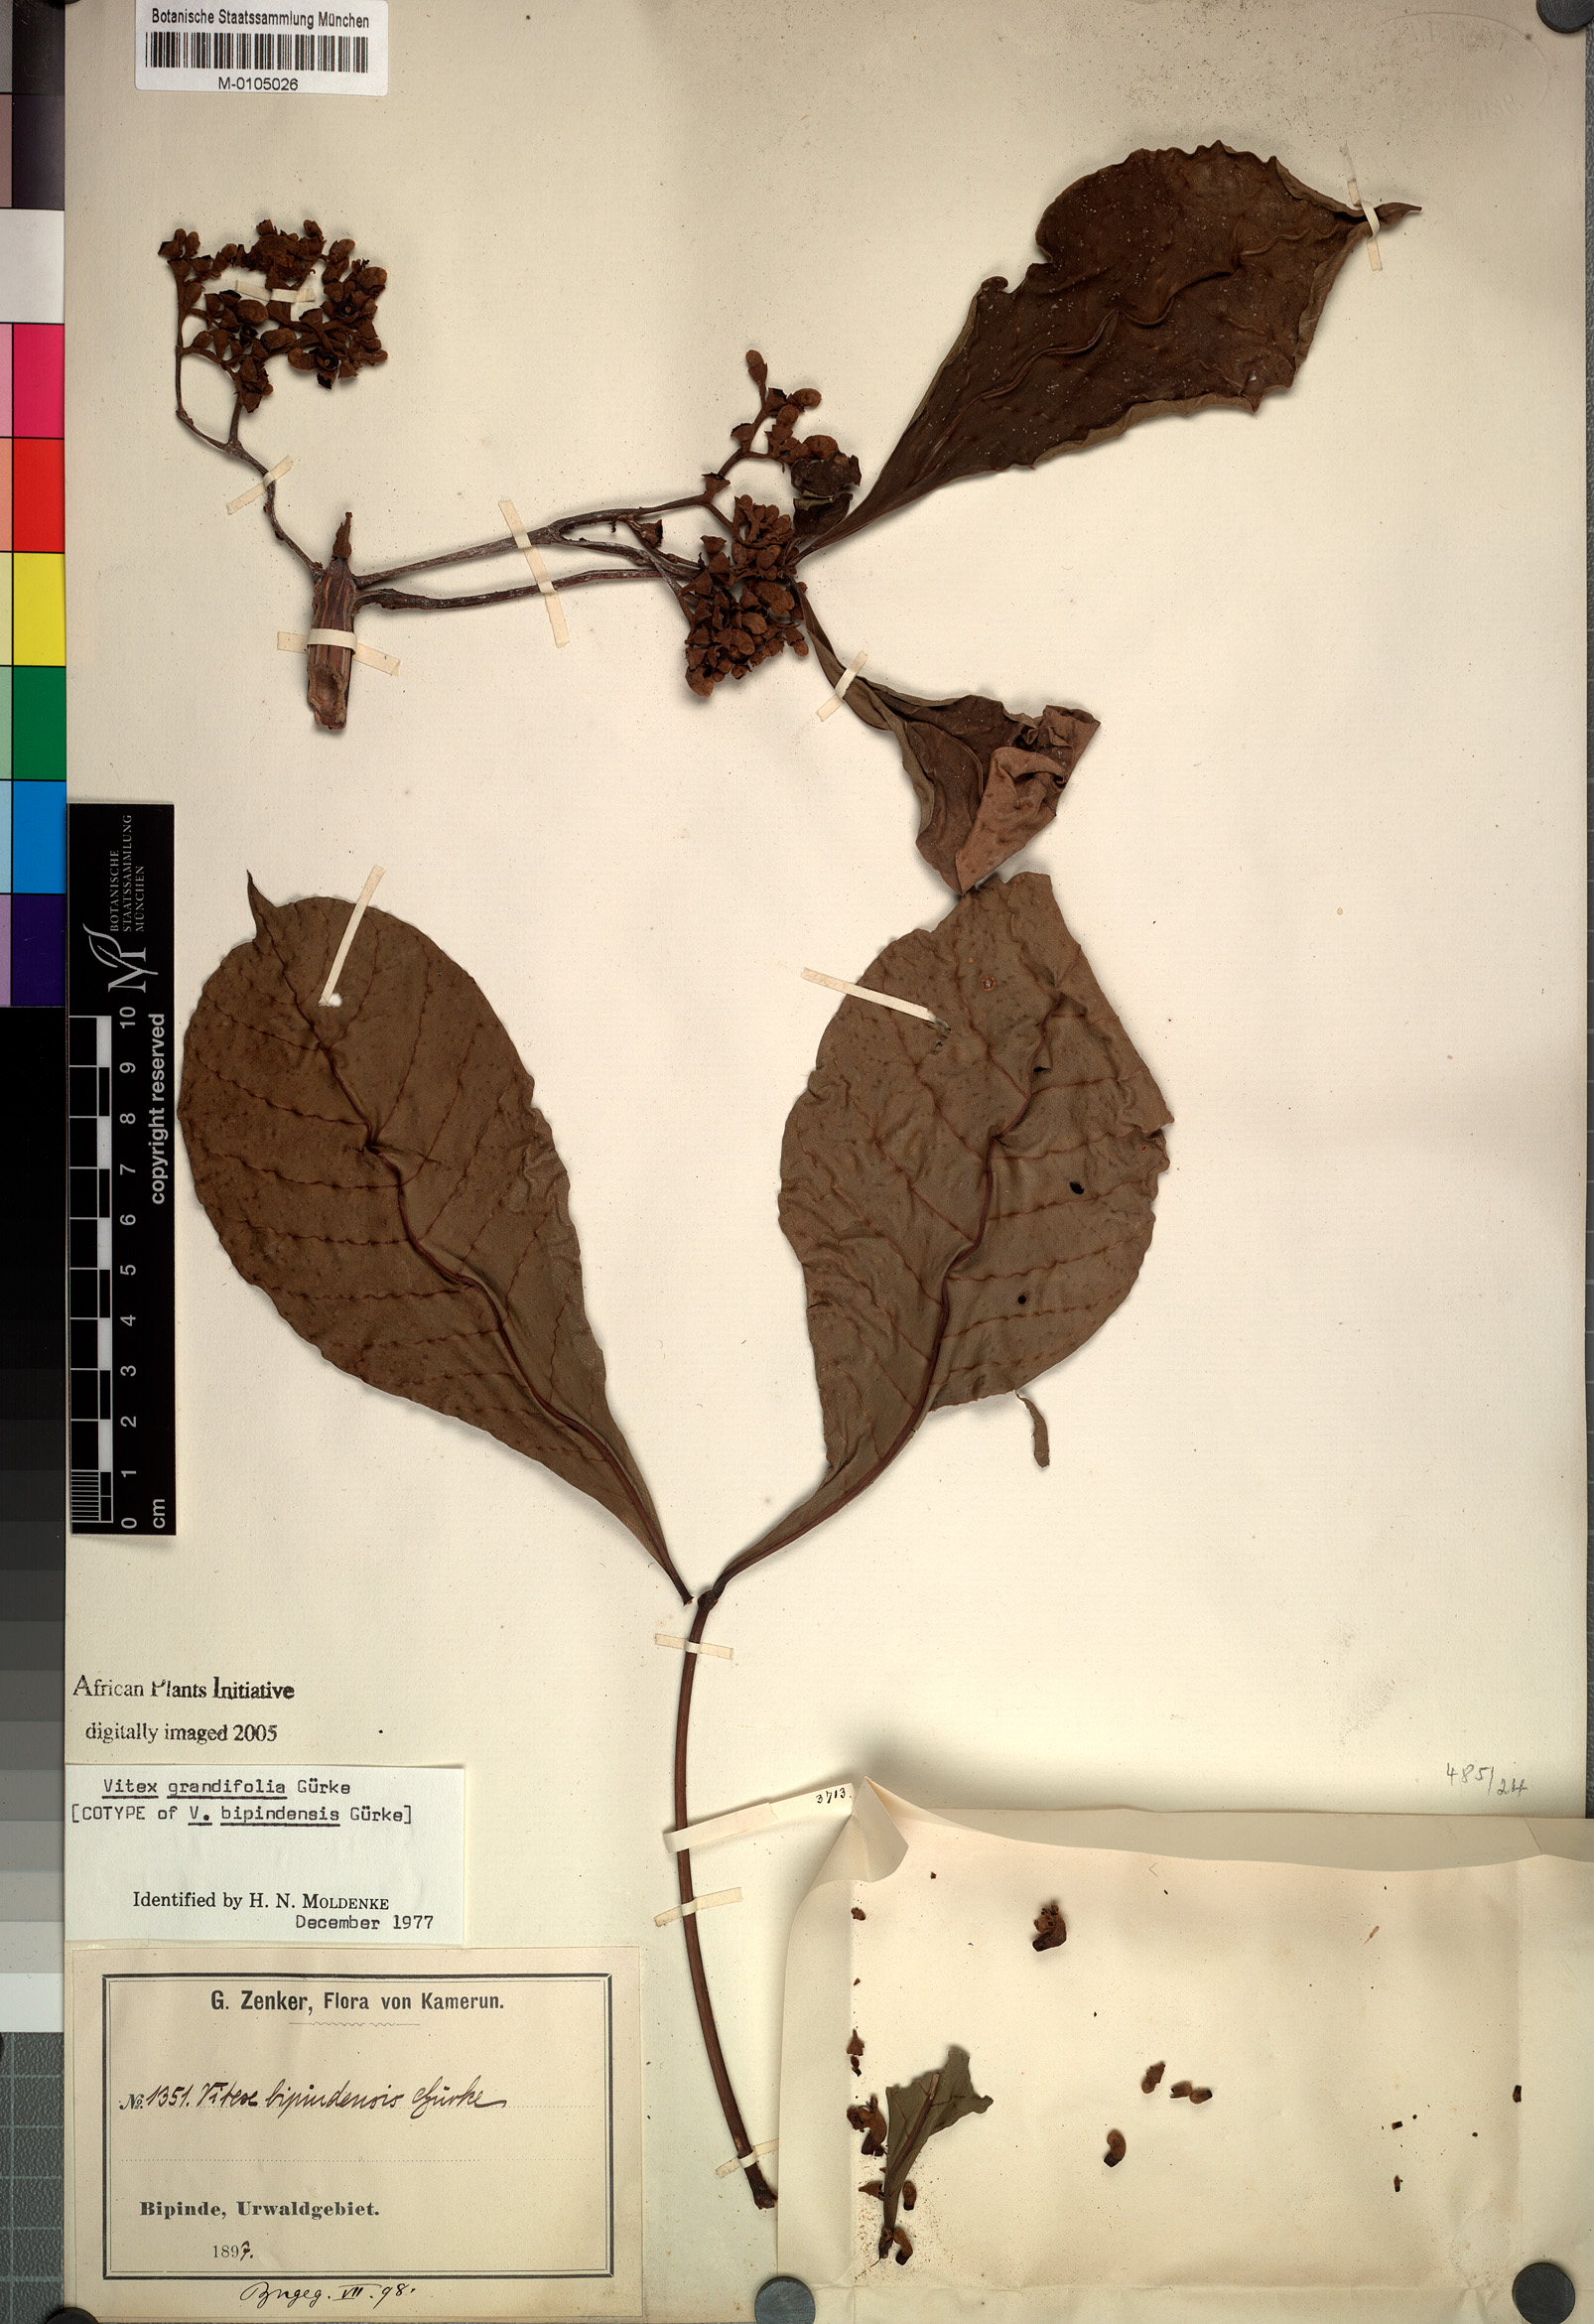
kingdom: Plantae
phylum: Tracheophyta
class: Magnoliopsida
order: Lamiales
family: Lamiaceae
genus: Vitex
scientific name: Vitex grandifolia
